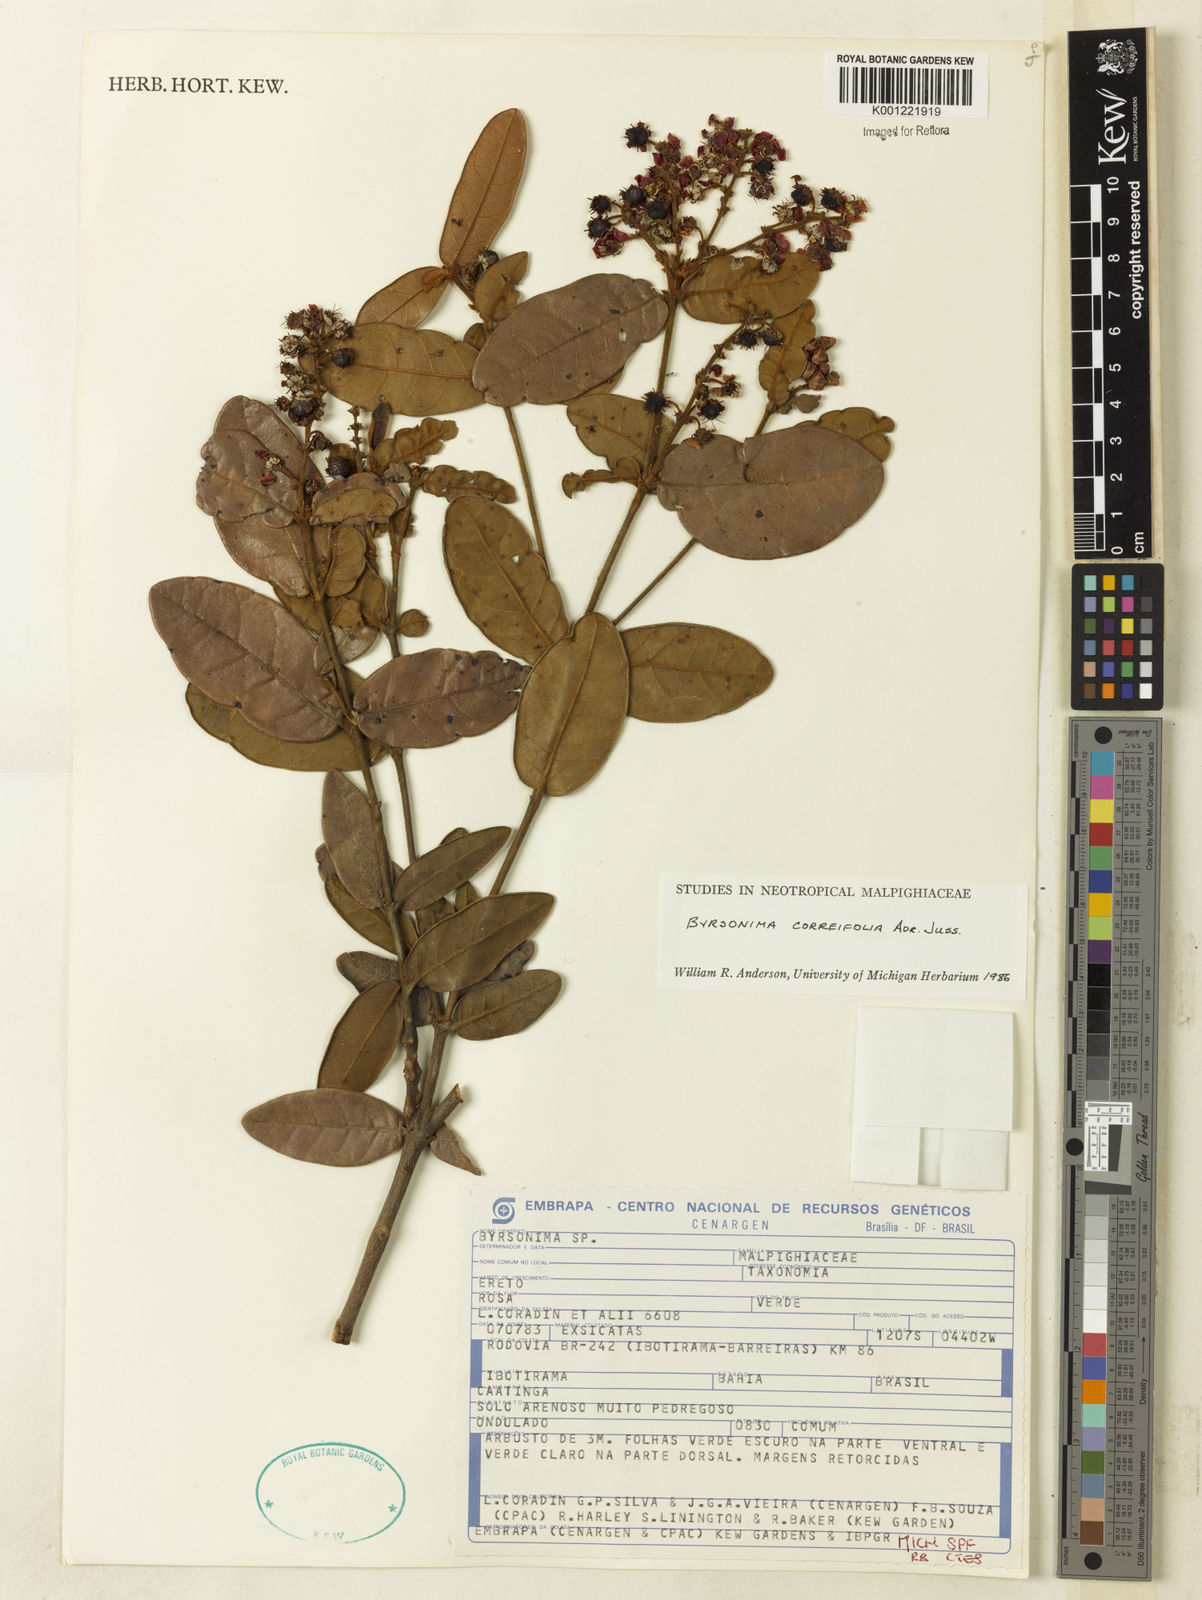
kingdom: Plantae
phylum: Tracheophyta
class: Magnoliopsida
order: Malpighiales
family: Malpighiaceae
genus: Byrsonima
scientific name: Byrsonima correifolia
